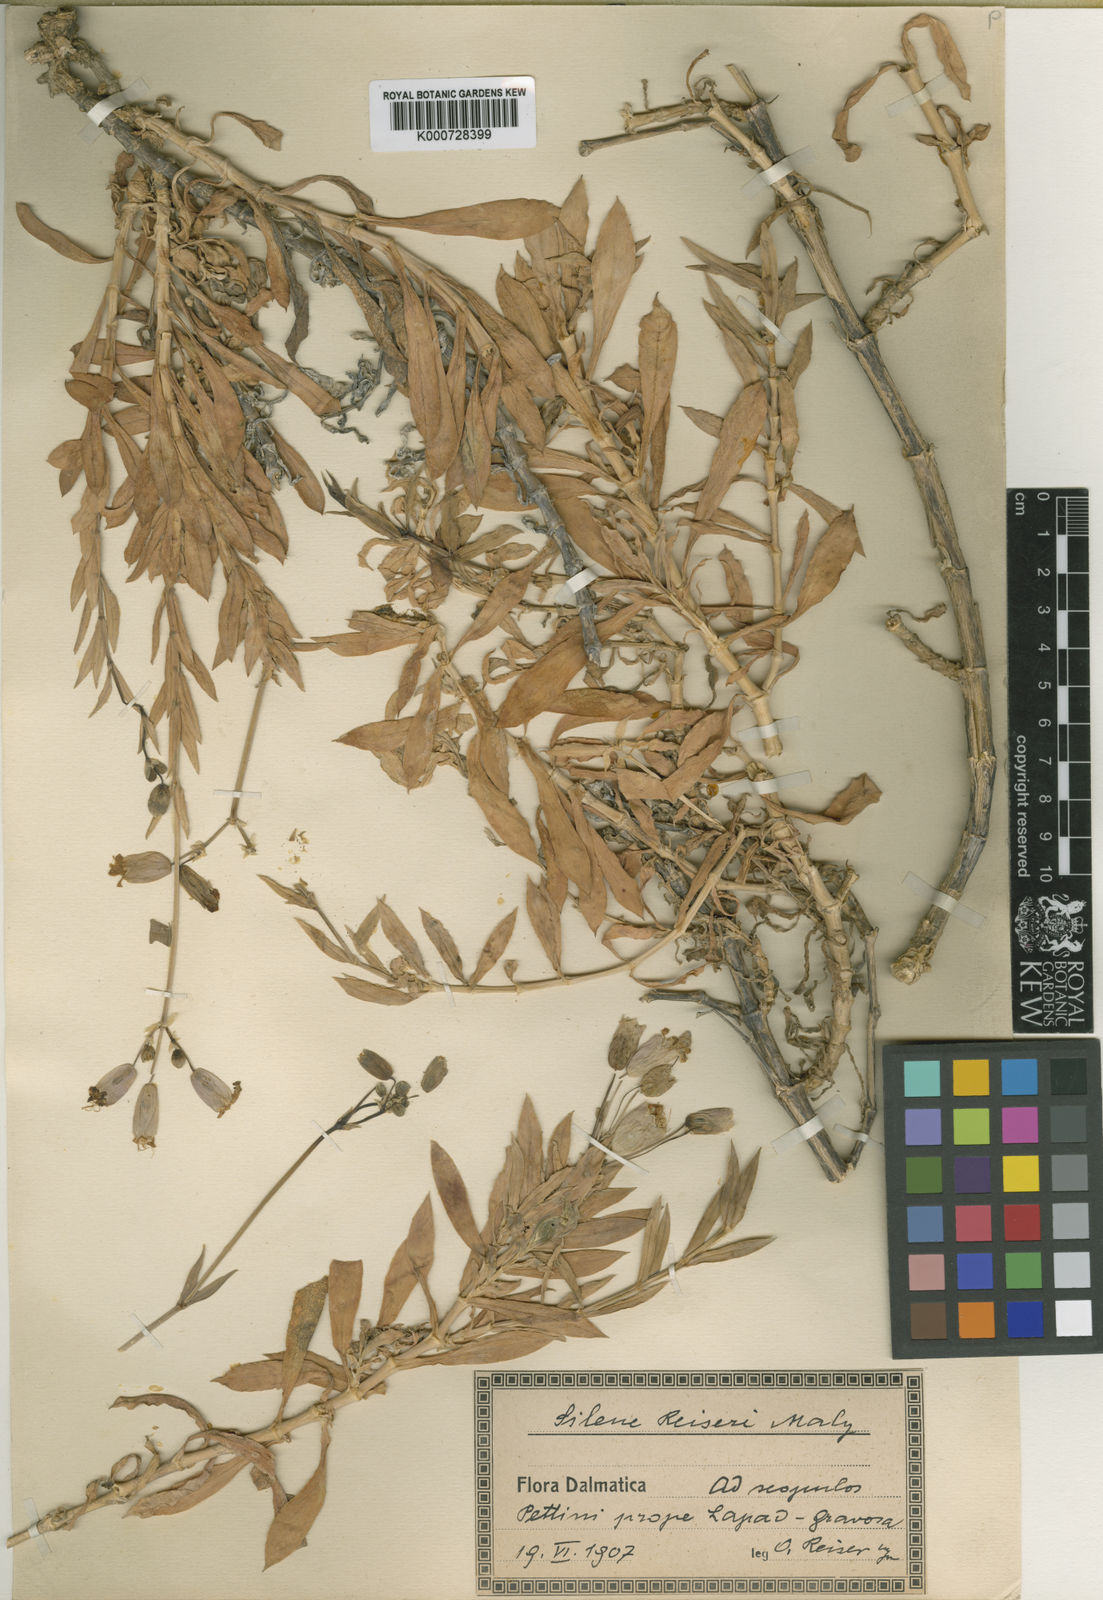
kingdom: Plantae
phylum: Tracheophyta
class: Magnoliopsida
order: Caryophyllales
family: Caryophyllaceae
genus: Silene
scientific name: Silene reiseri
